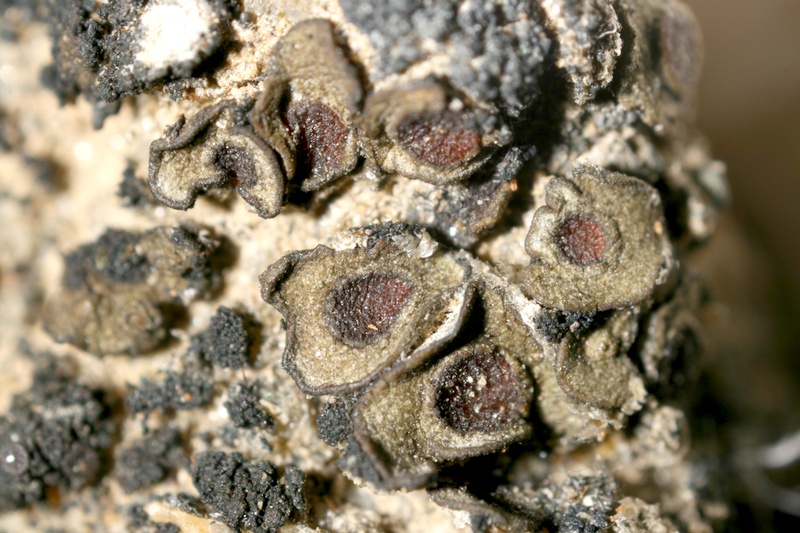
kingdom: Fungi
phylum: Ascomycota
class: Lichinomycetes
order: Lichinales
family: Peltulaceae
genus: Peltula
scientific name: Peltula patellata
